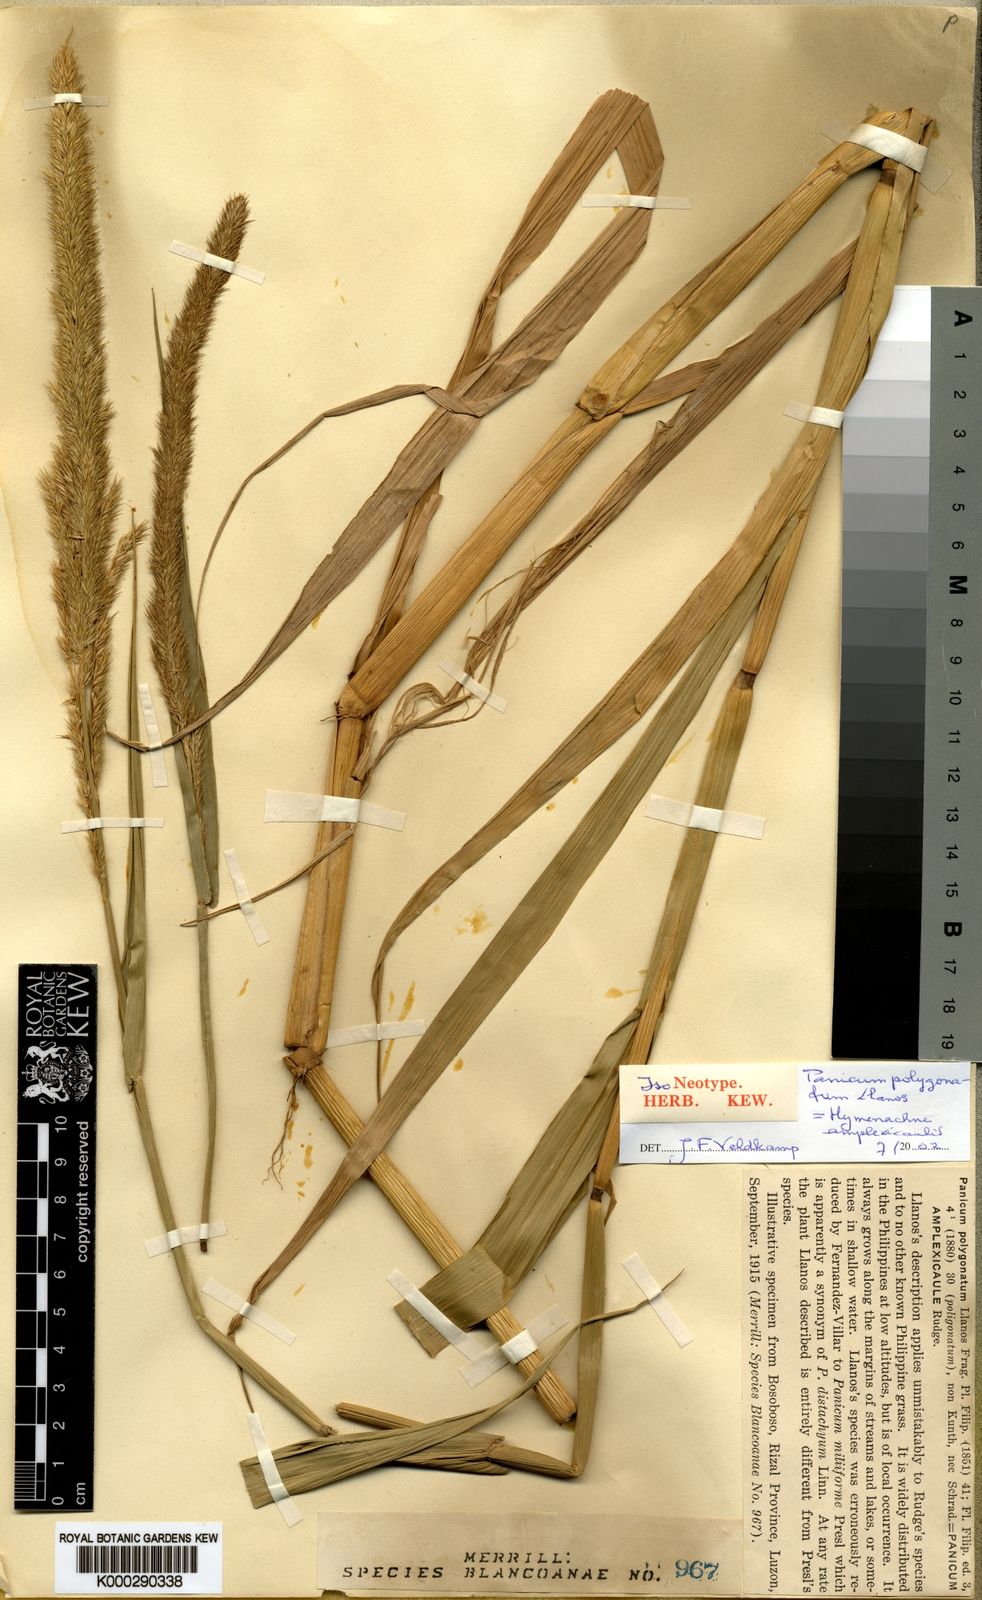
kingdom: Plantae
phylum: Tracheophyta
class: Liliopsida
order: Poales
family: Poaceae
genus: Hymenachne
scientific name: Hymenachne amplexicaulis
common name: Olive hymenachne
